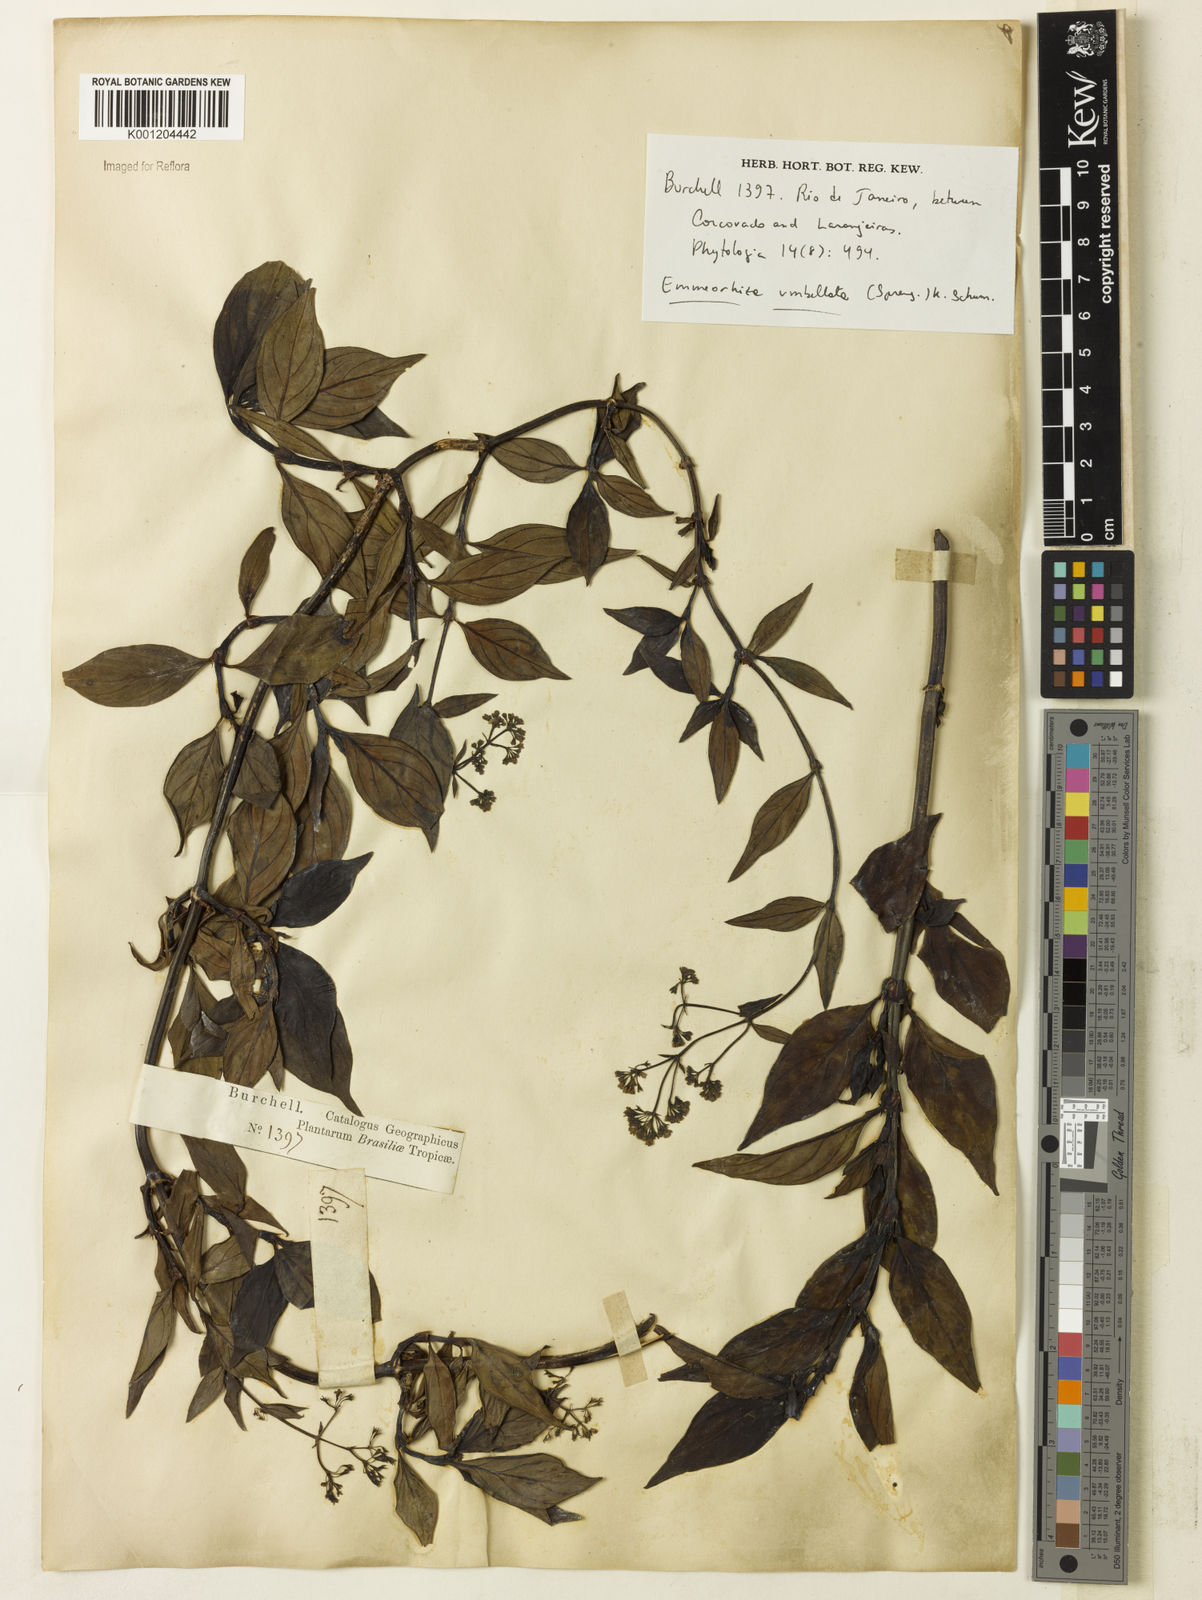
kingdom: Plantae
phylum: Tracheophyta
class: Magnoliopsida
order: Gentianales
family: Rubiaceae
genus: Emmeorhiza
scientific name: Emmeorhiza umbellata
